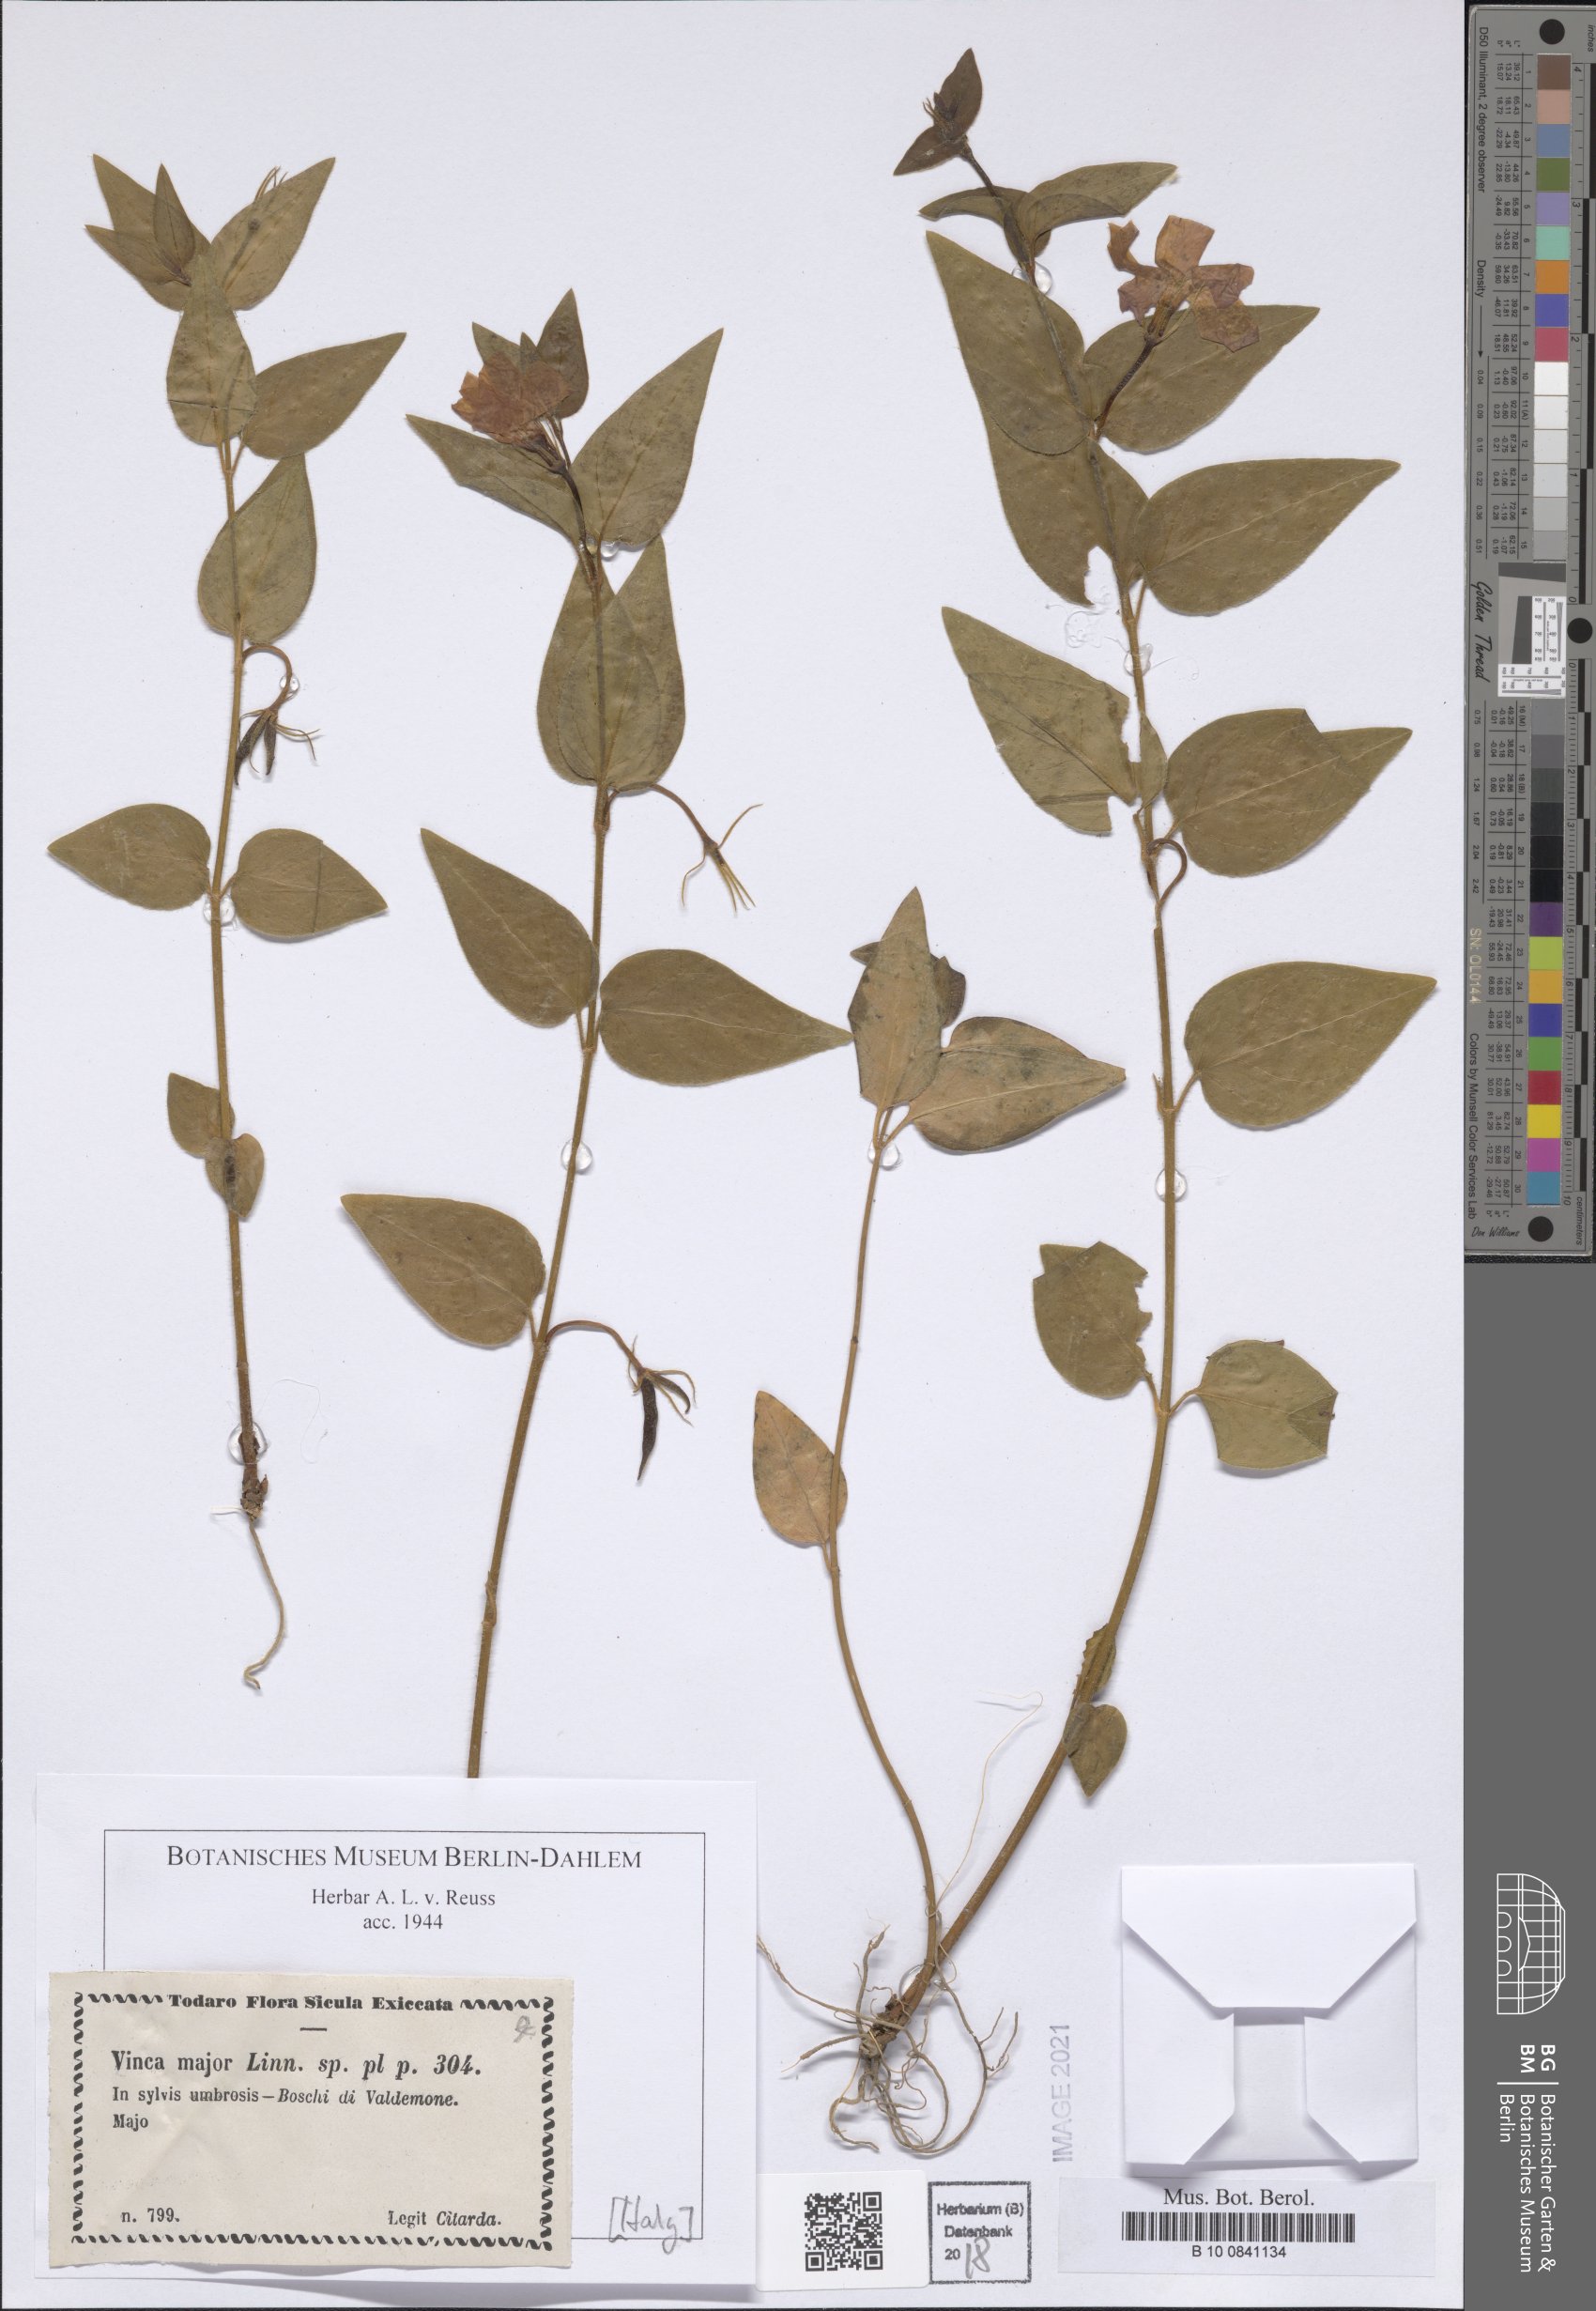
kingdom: Plantae
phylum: Tracheophyta
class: Magnoliopsida
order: Gentianales
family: Apocynaceae
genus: Vinca
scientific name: Vinca major
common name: Greater periwinkle
